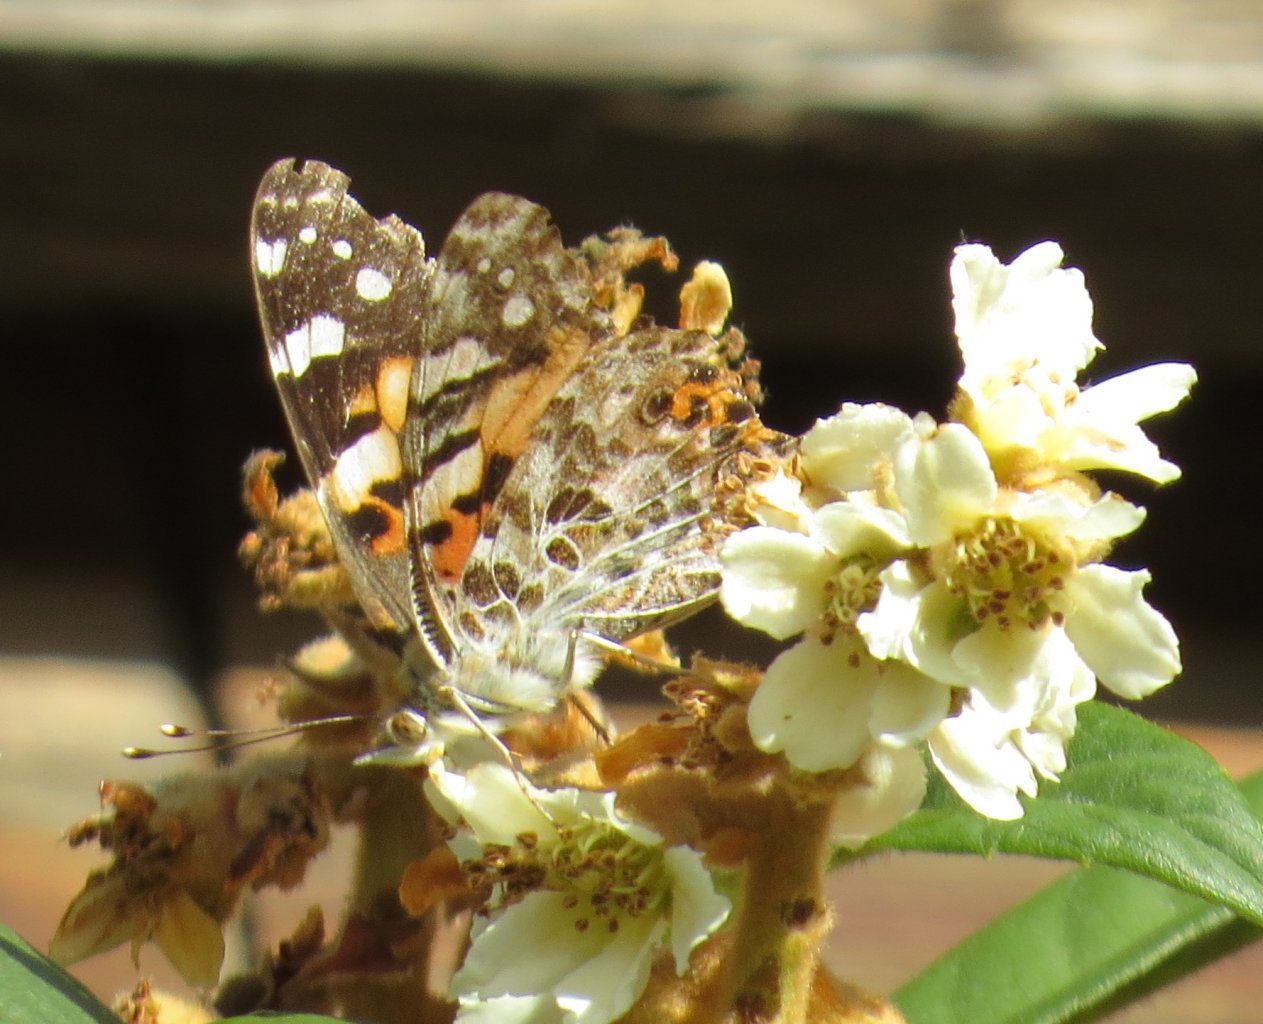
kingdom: Animalia
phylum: Arthropoda
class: Insecta
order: Lepidoptera
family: Nymphalidae
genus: Vanessa
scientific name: Vanessa cardui
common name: Painted Lady
